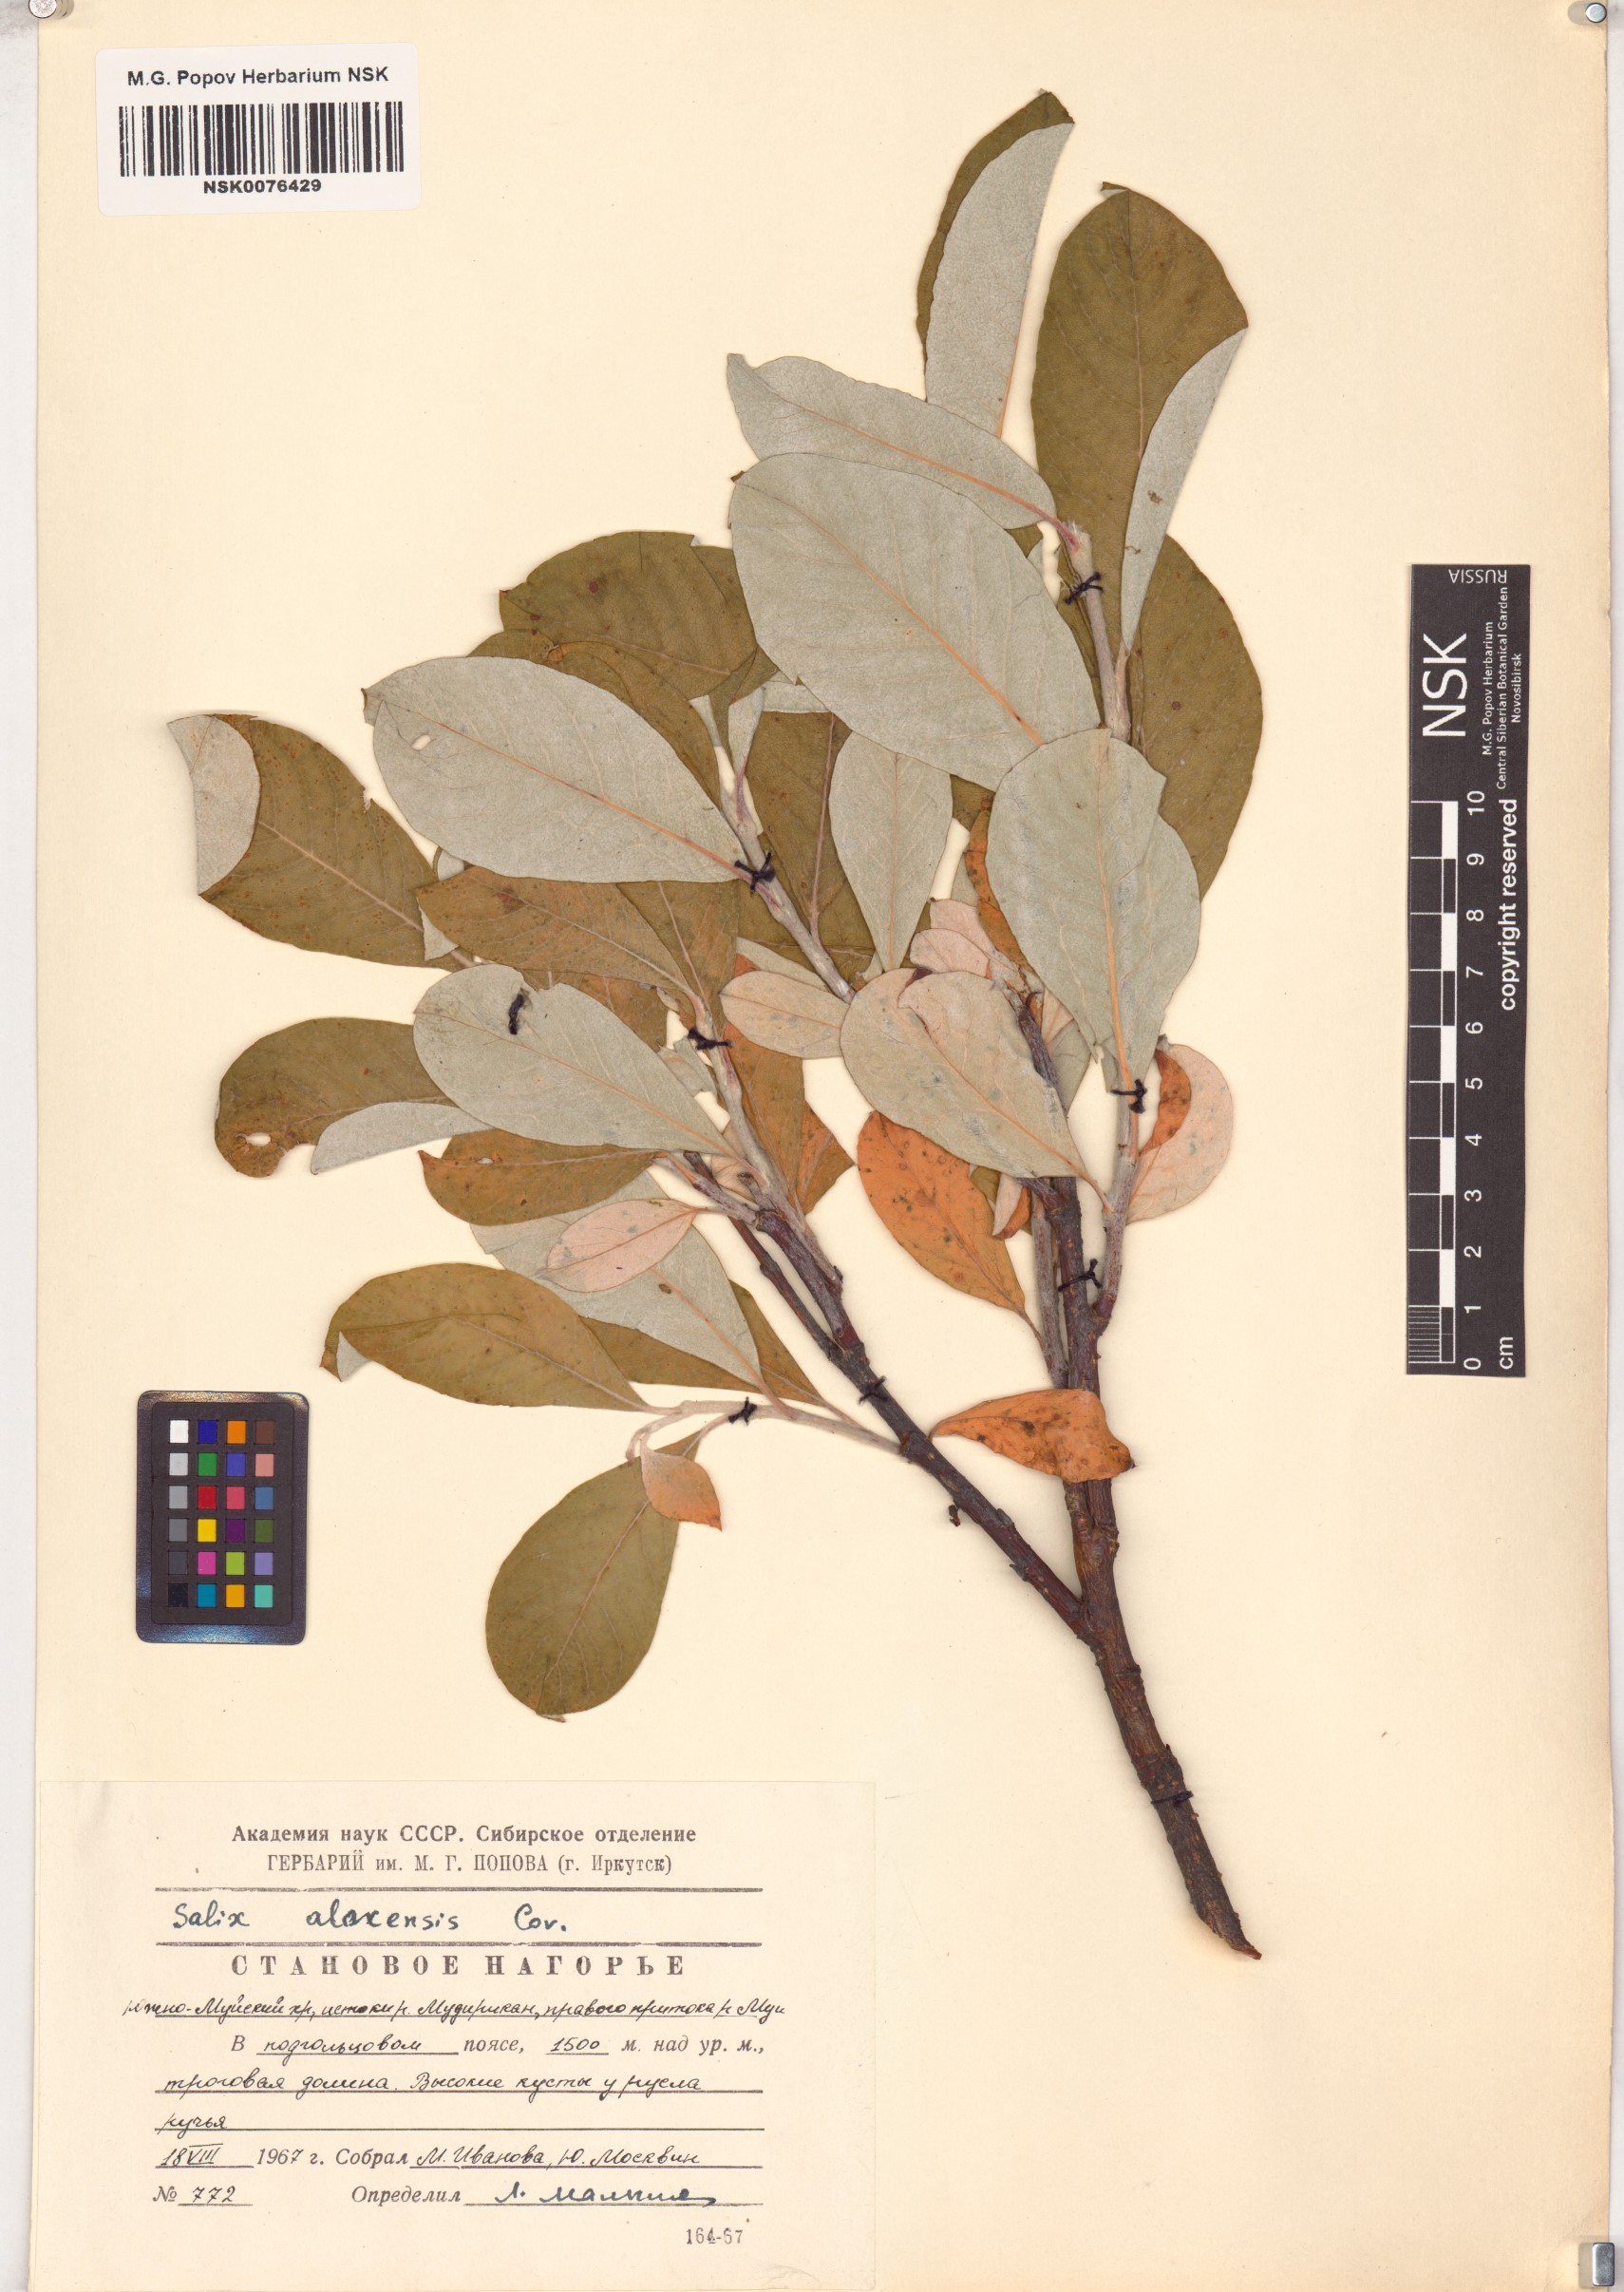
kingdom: Plantae
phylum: Tracheophyta
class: Magnoliopsida
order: Malpighiales
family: Salicaceae
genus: Salix
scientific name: Salix alaxensis
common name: Feltleaf willow
